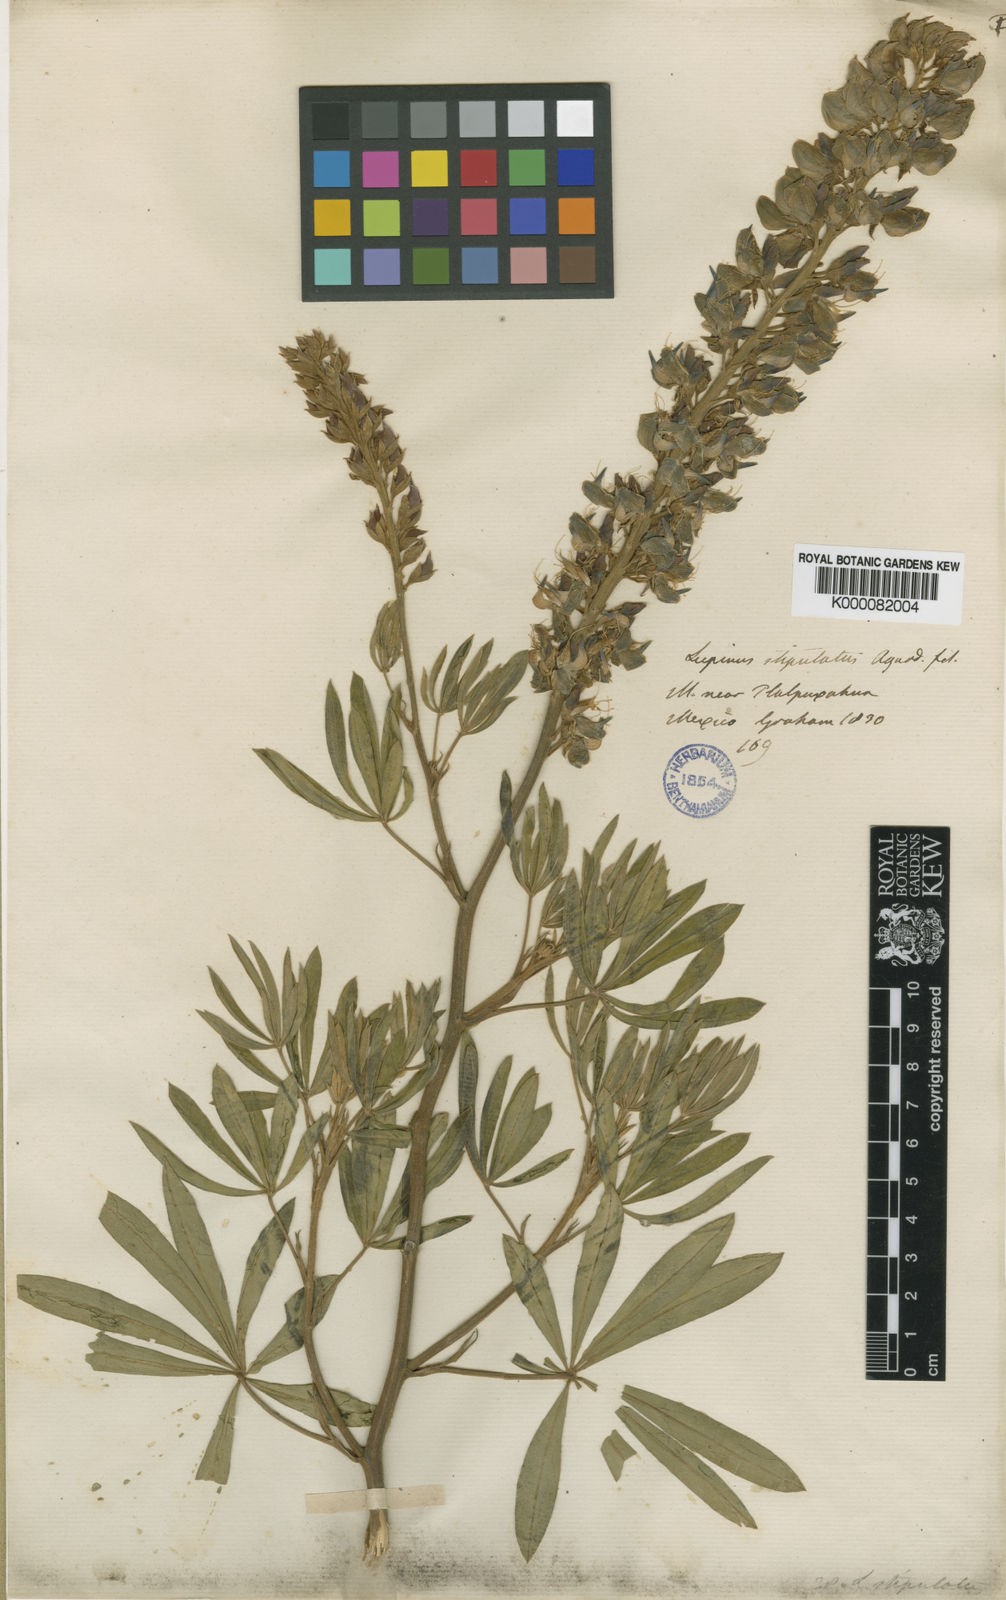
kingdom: Plantae
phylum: Tracheophyta
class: Magnoliopsida
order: Fabales
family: Fabaceae
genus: Lupinus
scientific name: Lupinus stipulatus
